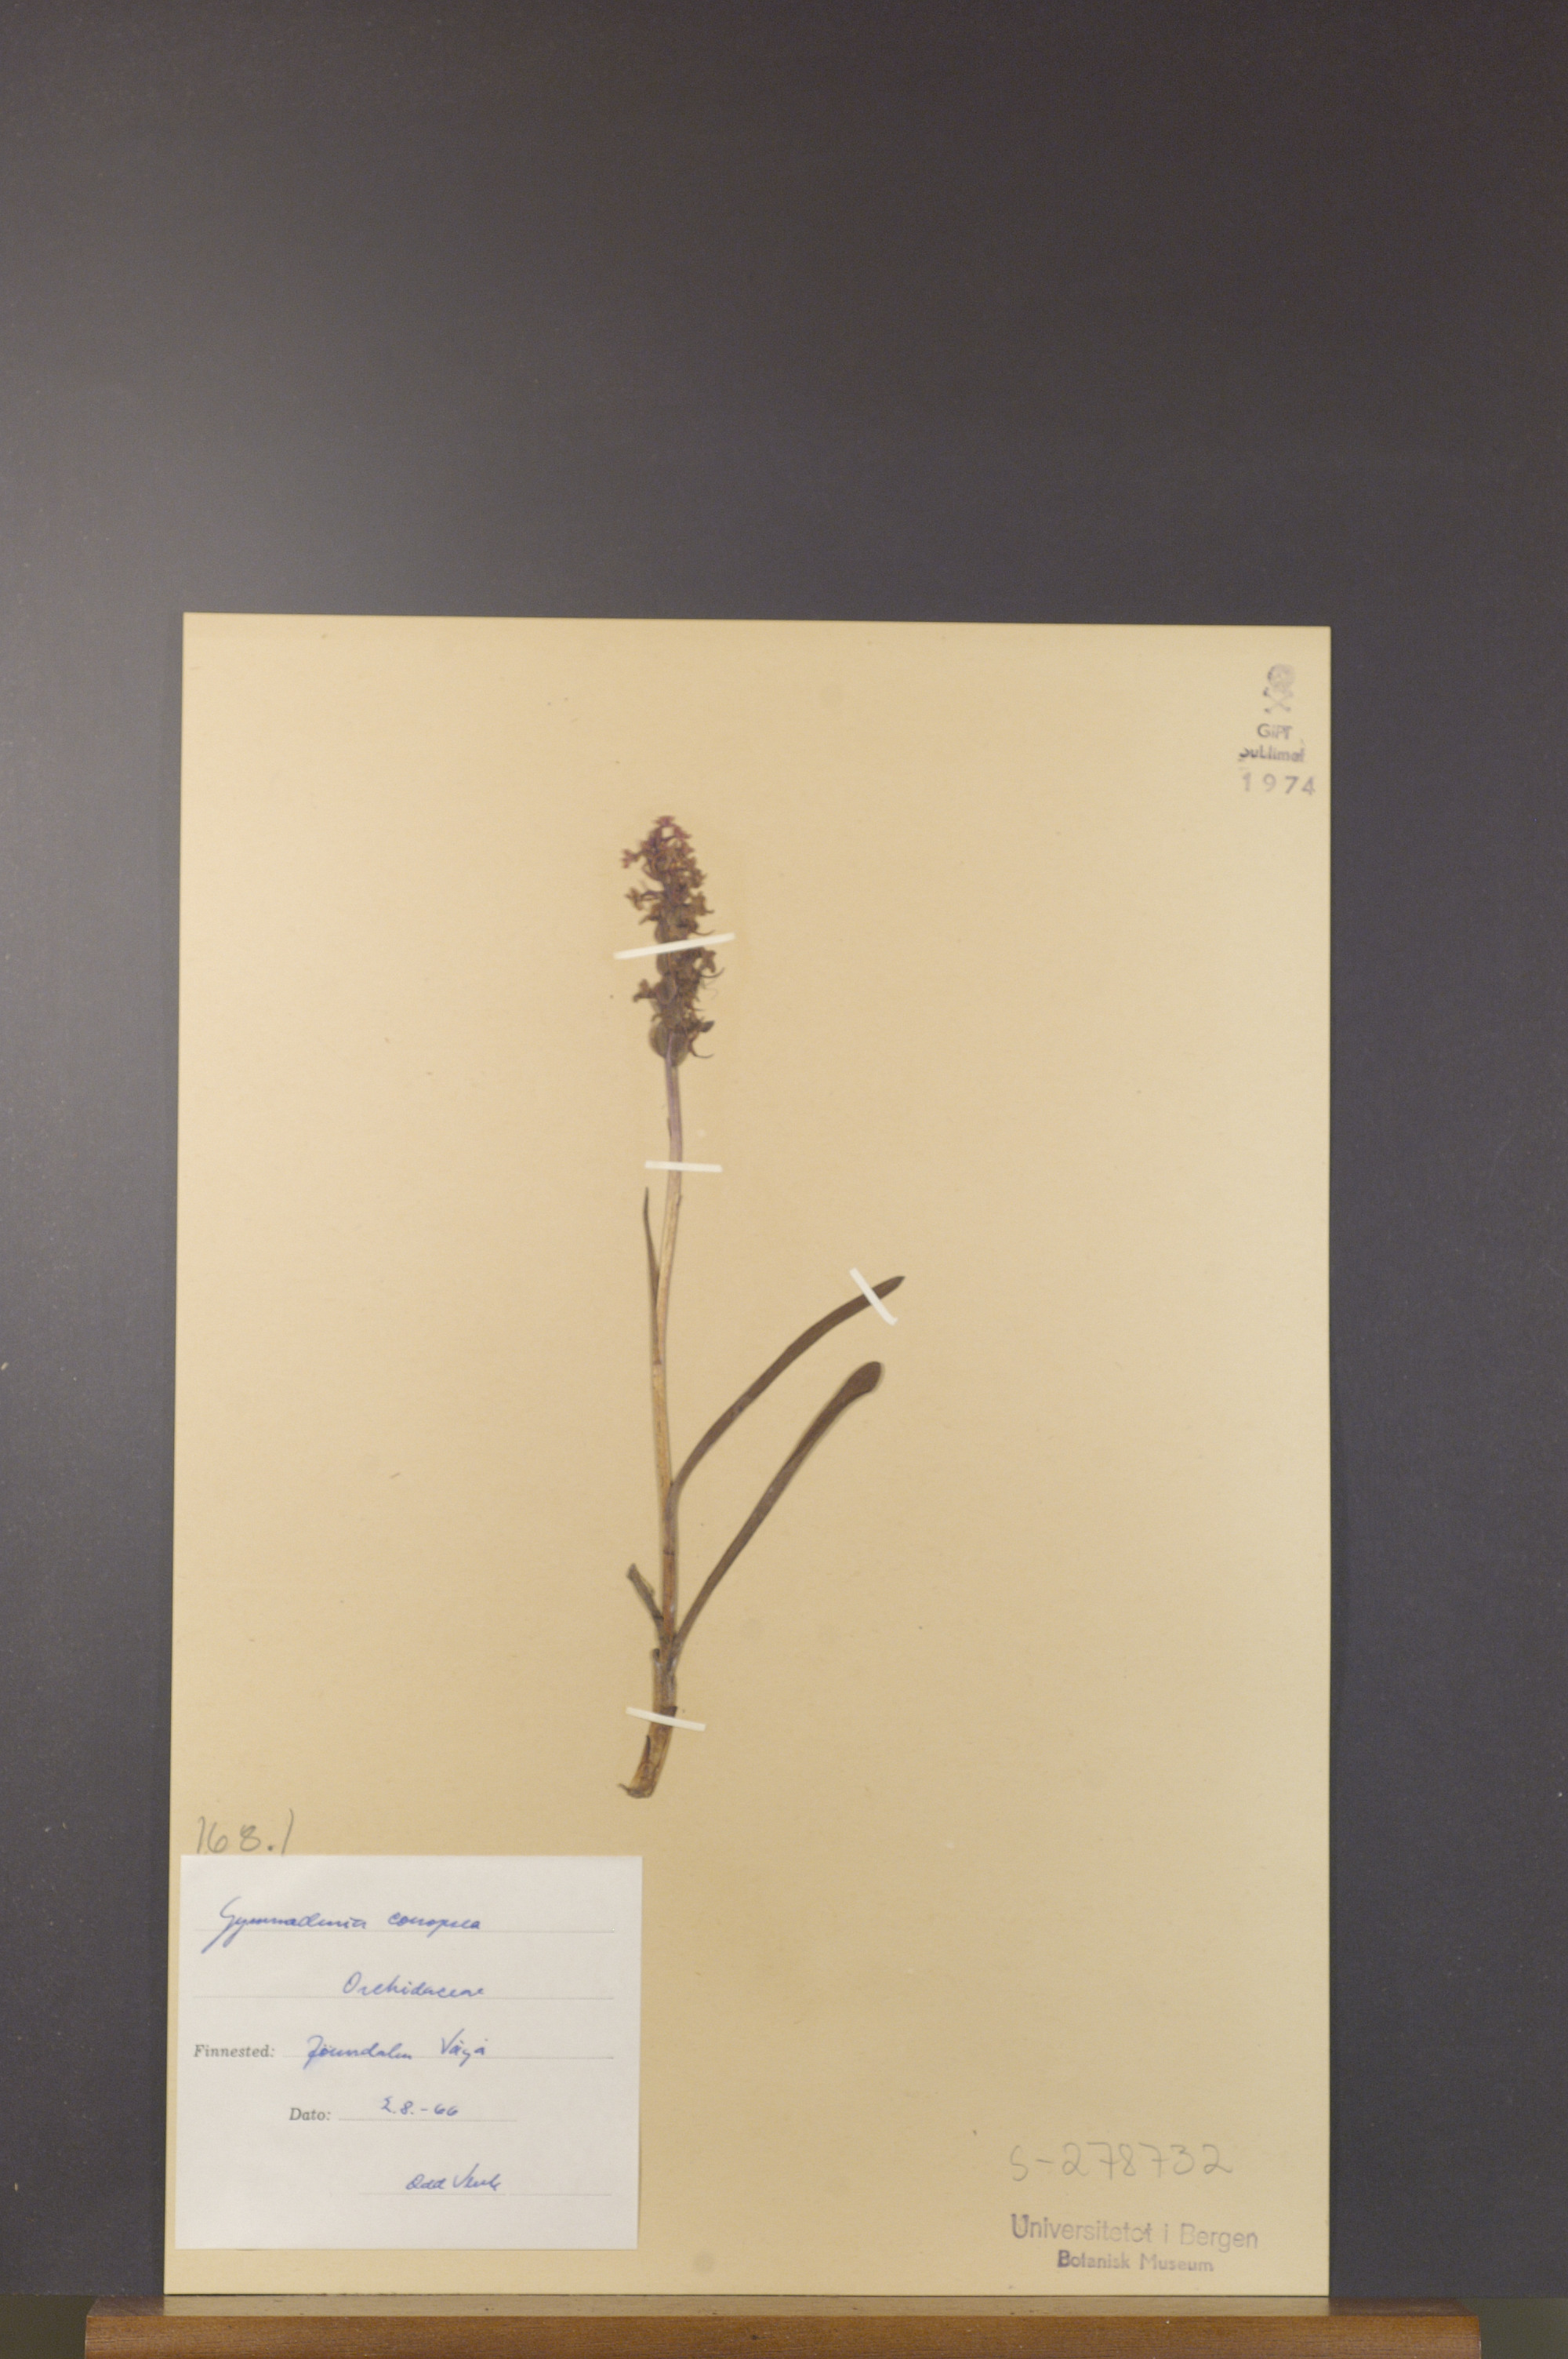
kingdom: Plantae
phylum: Tracheophyta
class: Liliopsida
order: Asparagales
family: Orchidaceae
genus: Gymnadenia
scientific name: Gymnadenia conopsea
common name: Fragrant orchid
